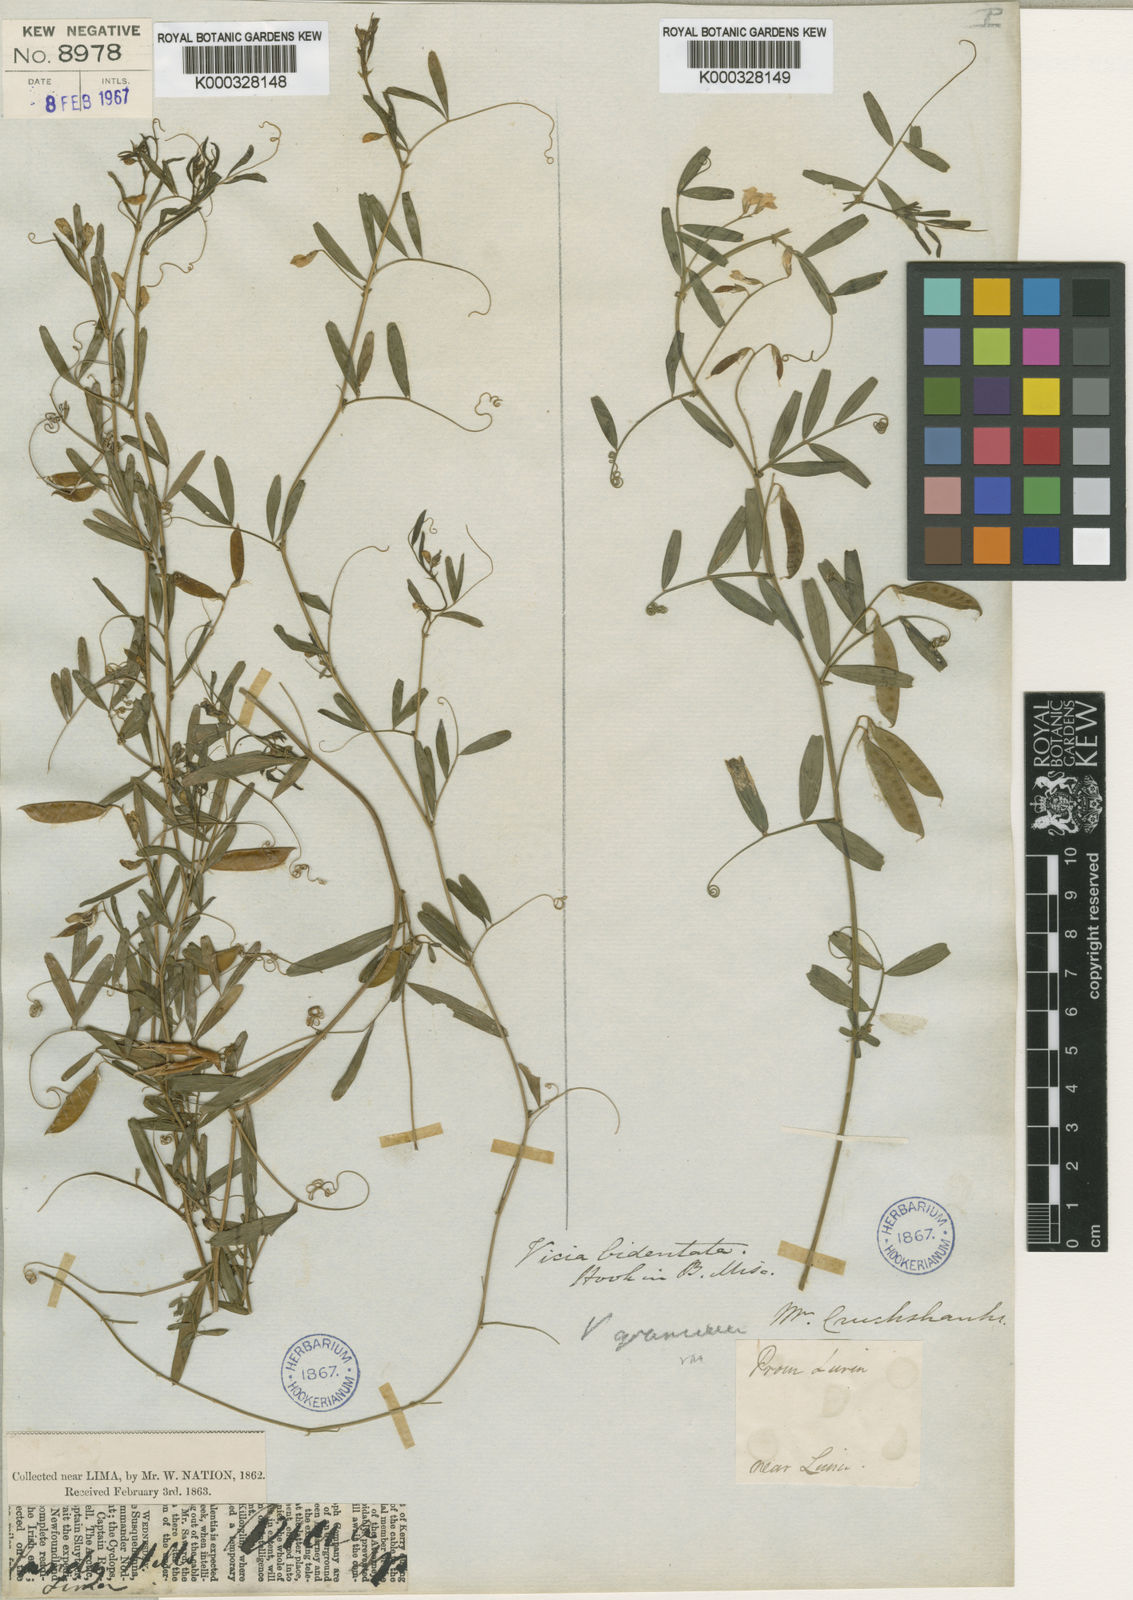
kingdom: Plantae
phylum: Tracheophyta
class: Magnoliopsida
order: Fabales
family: Fabaceae
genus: Vicia
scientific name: Vicia graminea
